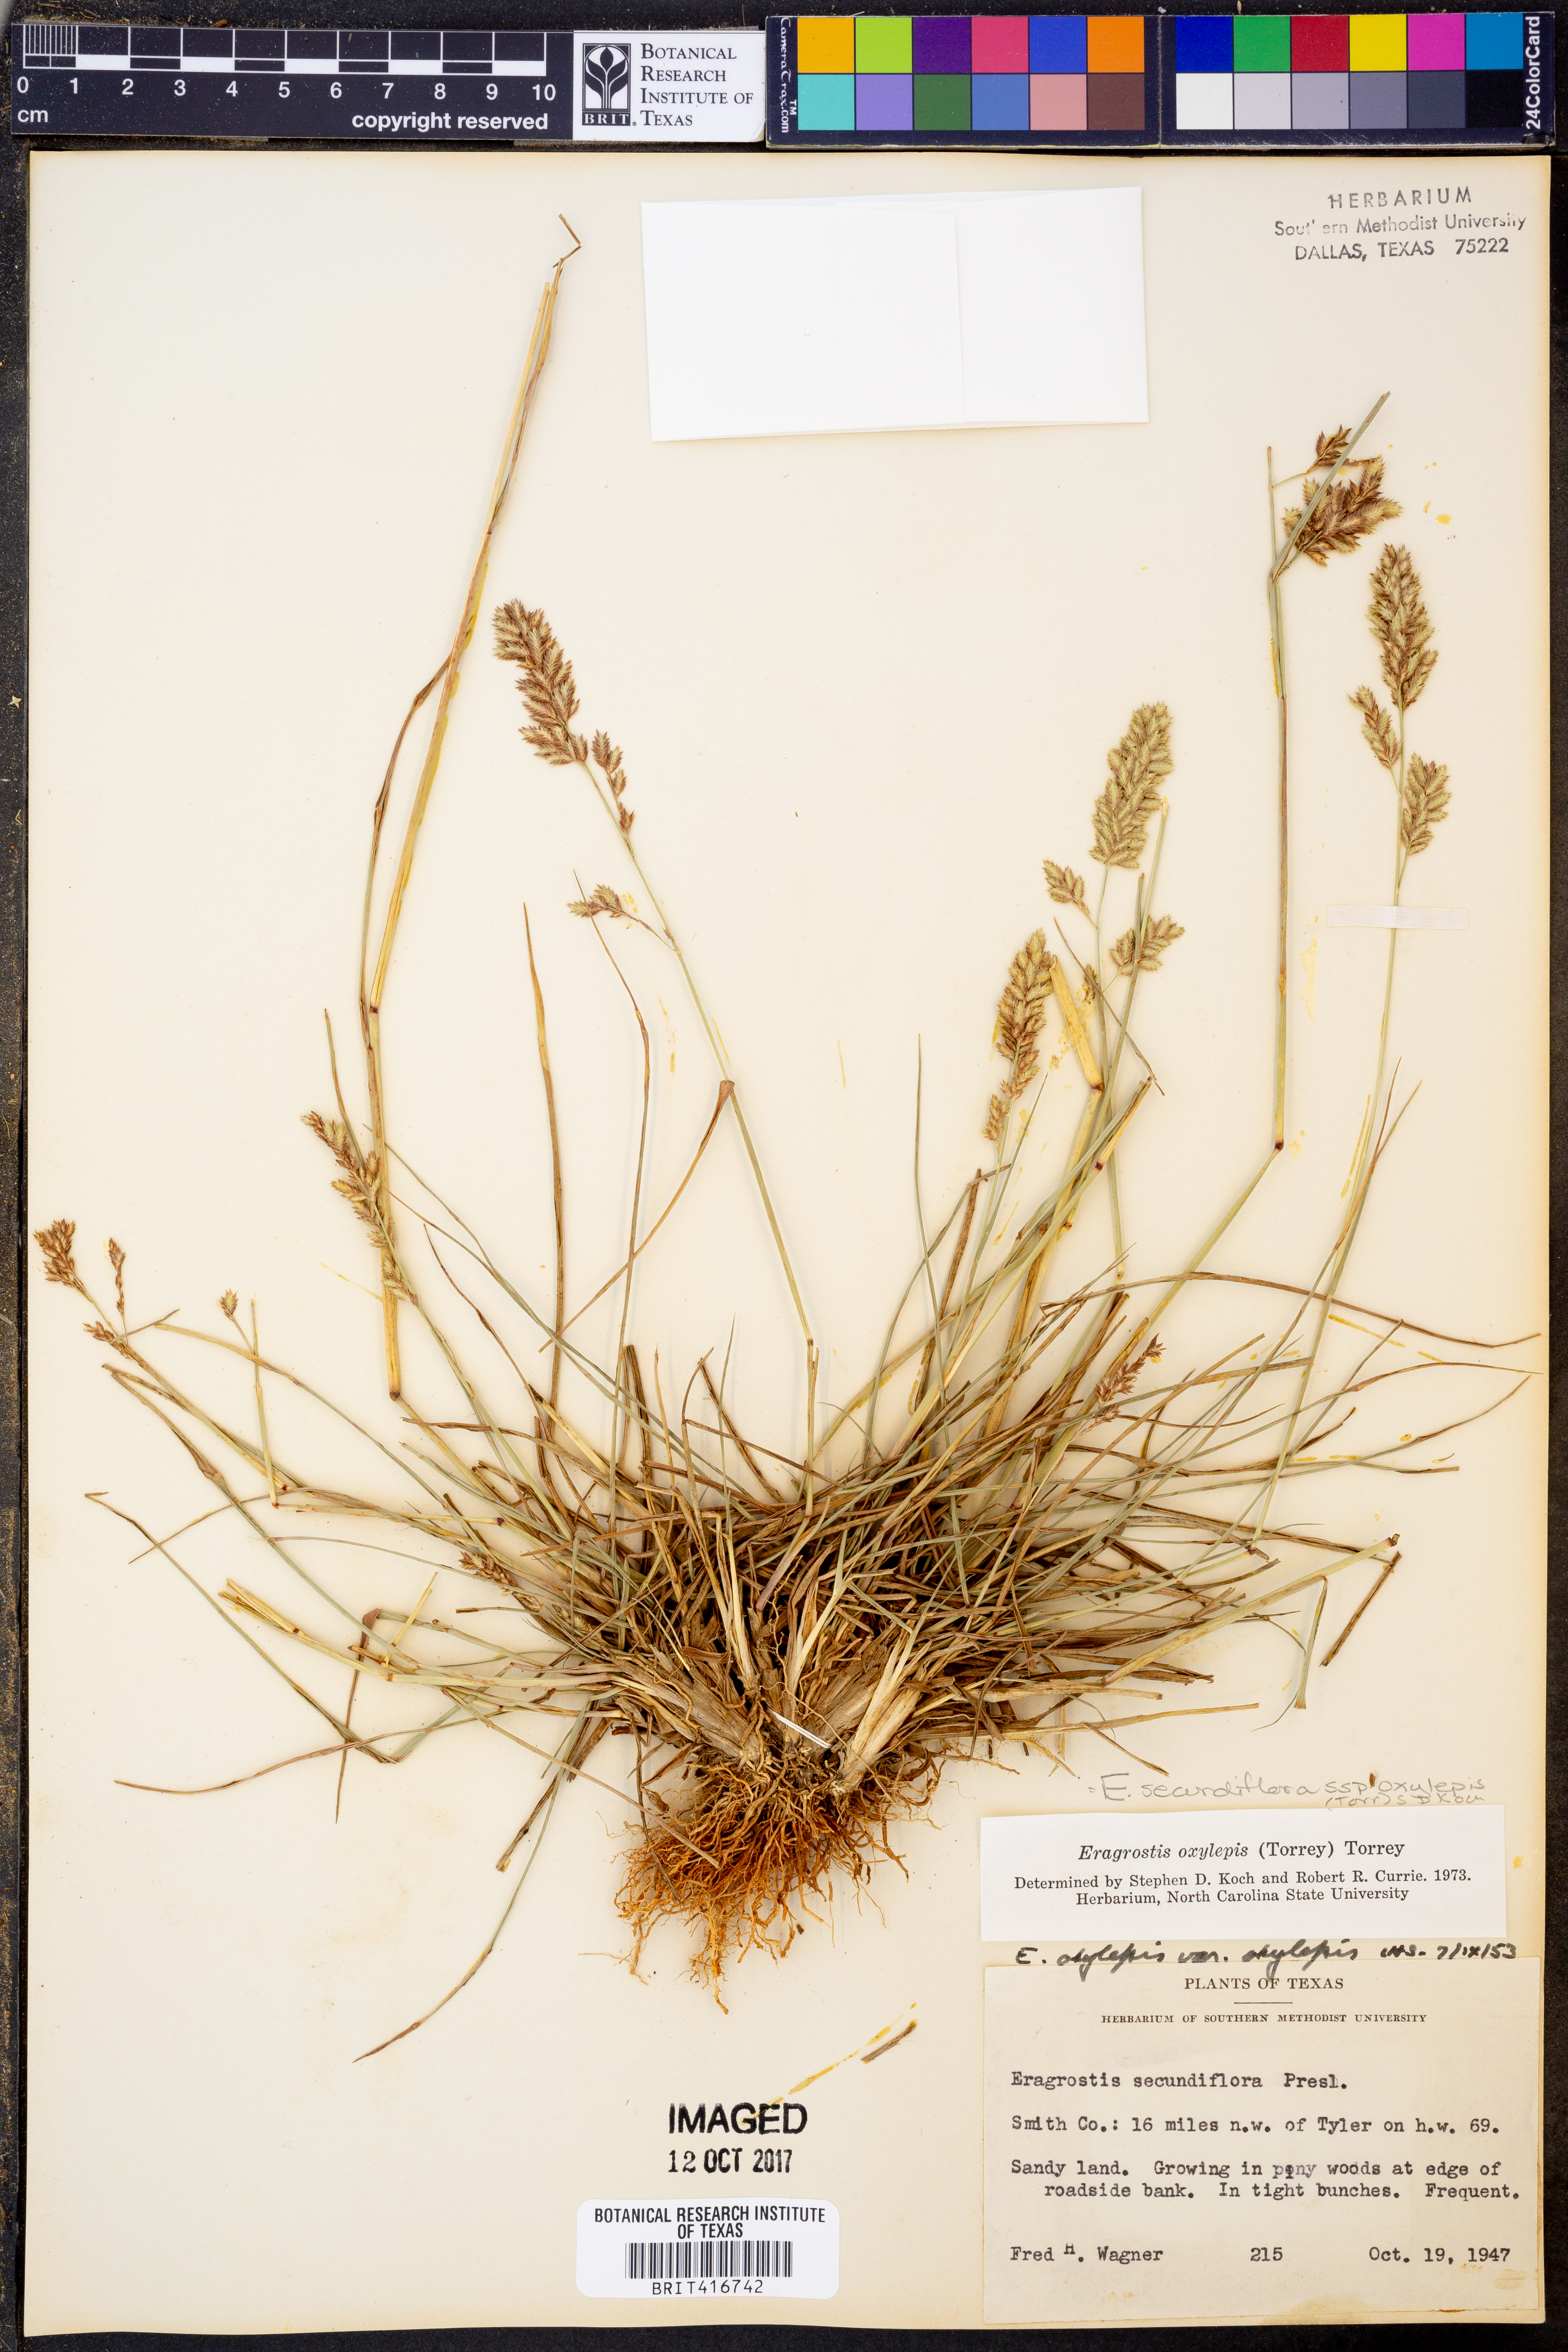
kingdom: Plantae
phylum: Tracheophyta
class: Liliopsida
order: Poales
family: Poaceae
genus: Eragrostis
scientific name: Eragrostis secundiflora
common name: Red love grass
